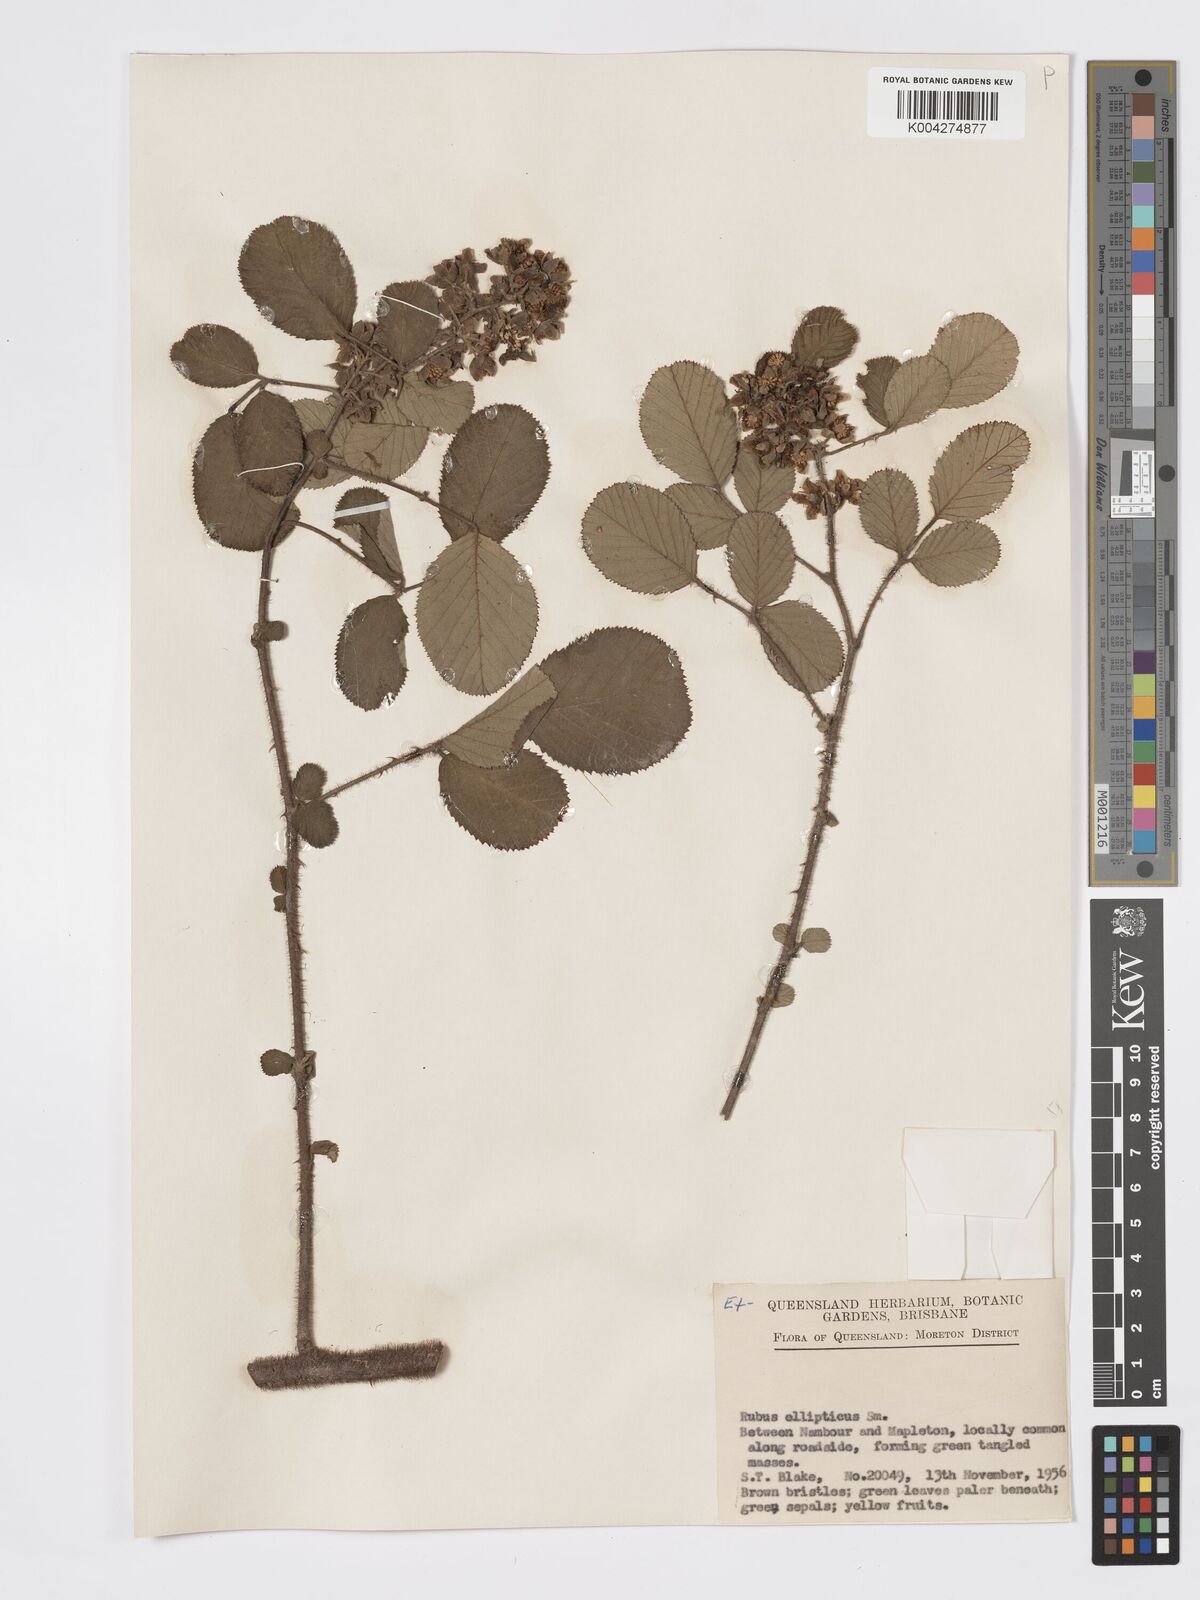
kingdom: Plantae
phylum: Tracheophyta
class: Magnoliopsida
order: Rosales
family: Rosaceae
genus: Rubus
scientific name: Rubus ellipticus
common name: Cheeseberry
